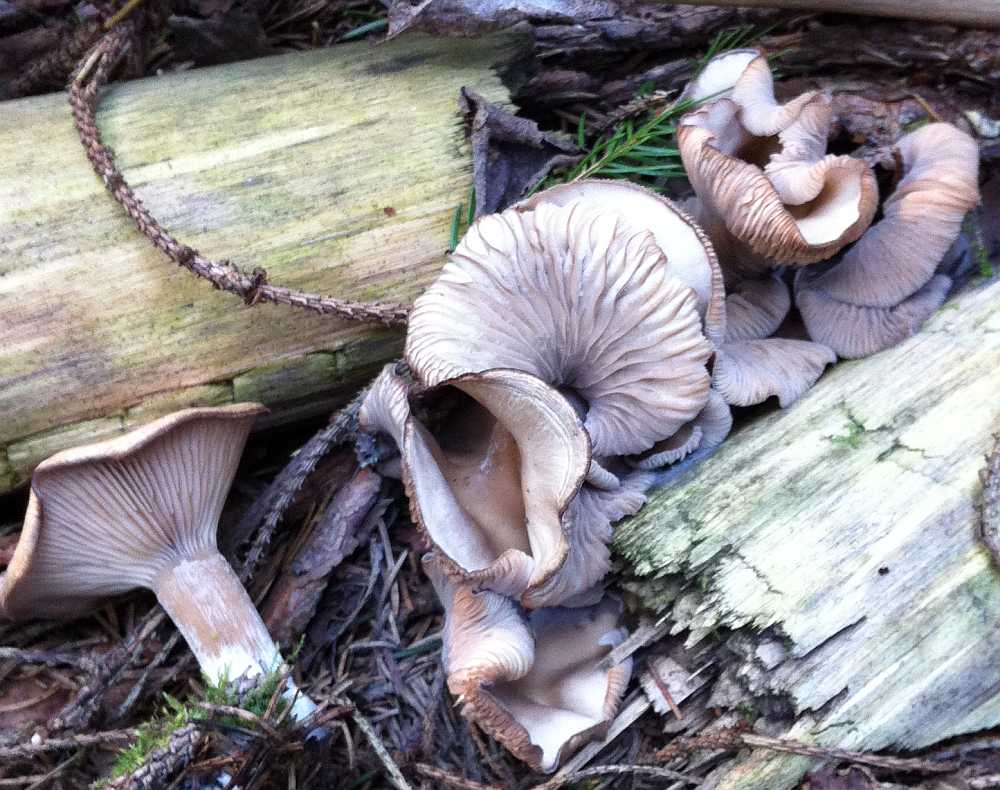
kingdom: Fungi
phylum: Basidiomycota
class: Agaricomycetes
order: Agaricales
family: Tricholomataceae
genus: Clitocybe
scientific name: Clitocybe fragrans
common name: vellugtende tragthat
